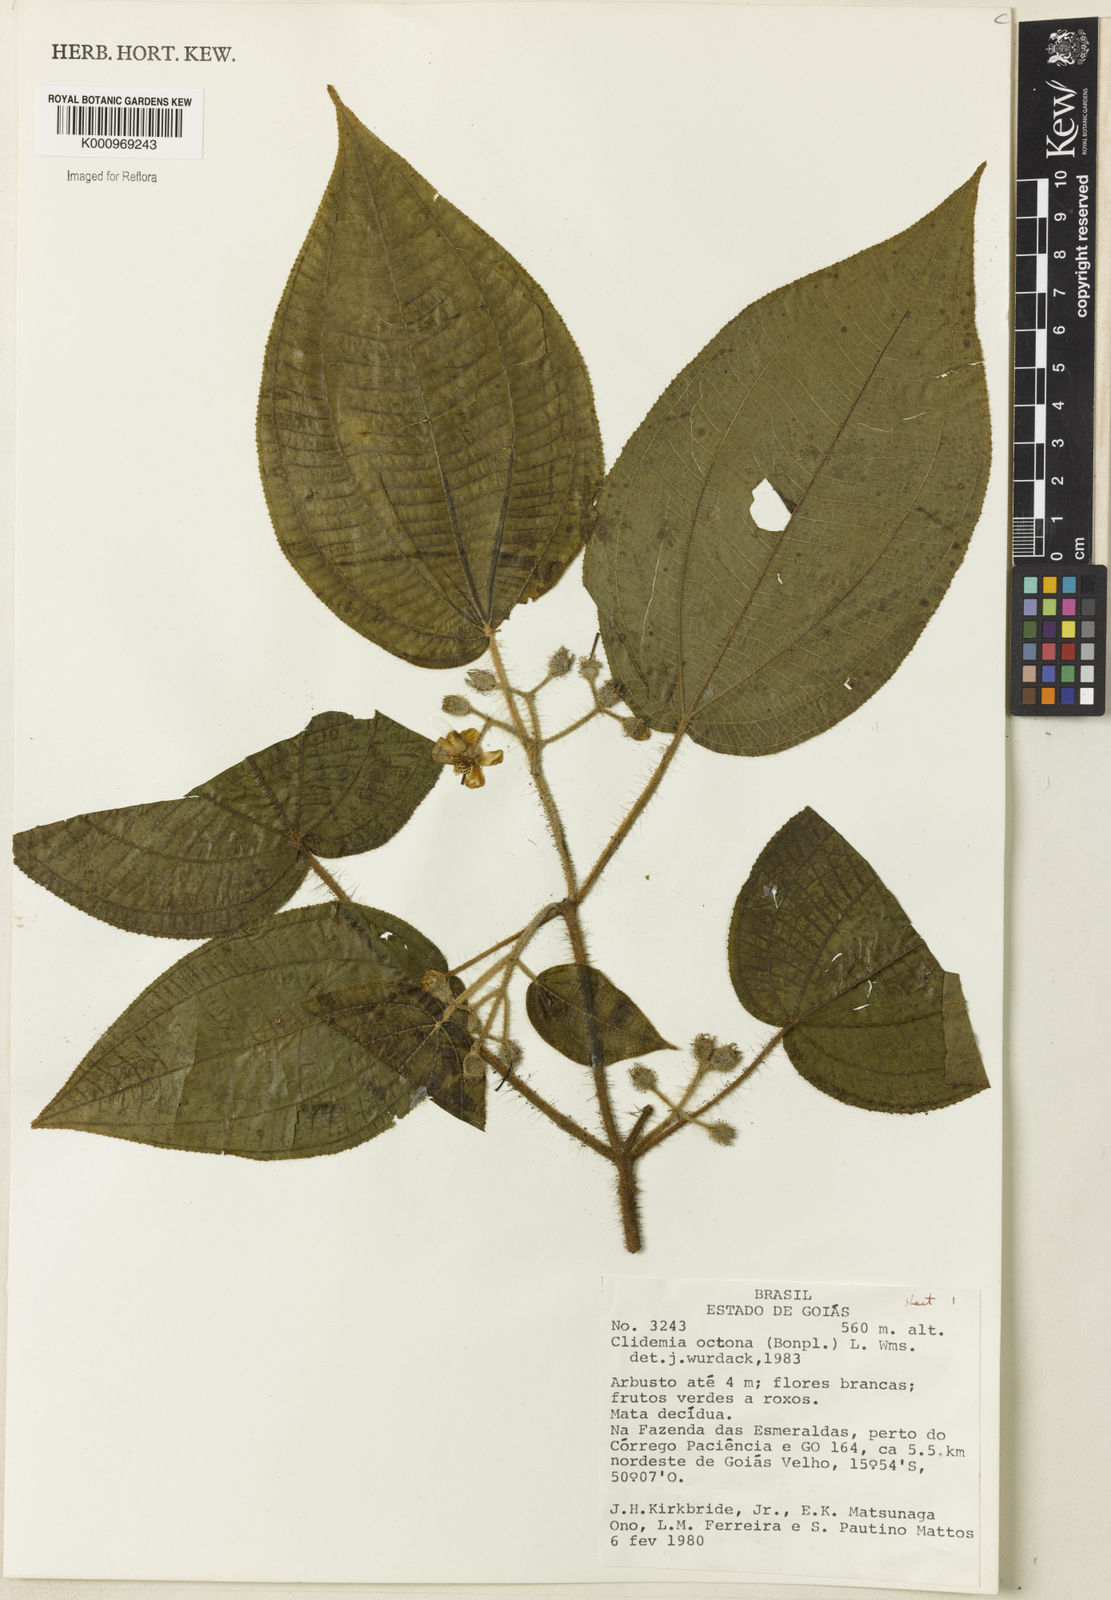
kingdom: Plantae
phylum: Tracheophyta
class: Magnoliopsida
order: Myrtales
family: Melastomataceae
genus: Miconia
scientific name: Miconia octona
